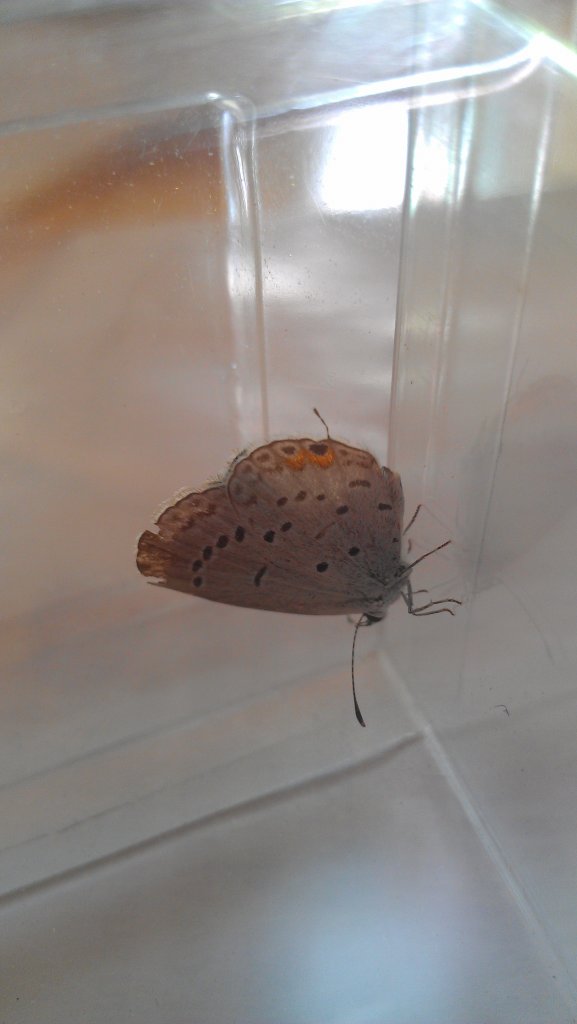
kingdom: Animalia
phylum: Arthropoda
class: Insecta
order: Lepidoptera
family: Lycaenidae
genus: Elkalyce
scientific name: Elkalyce comyntas
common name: Eastern Tailed-Blue
